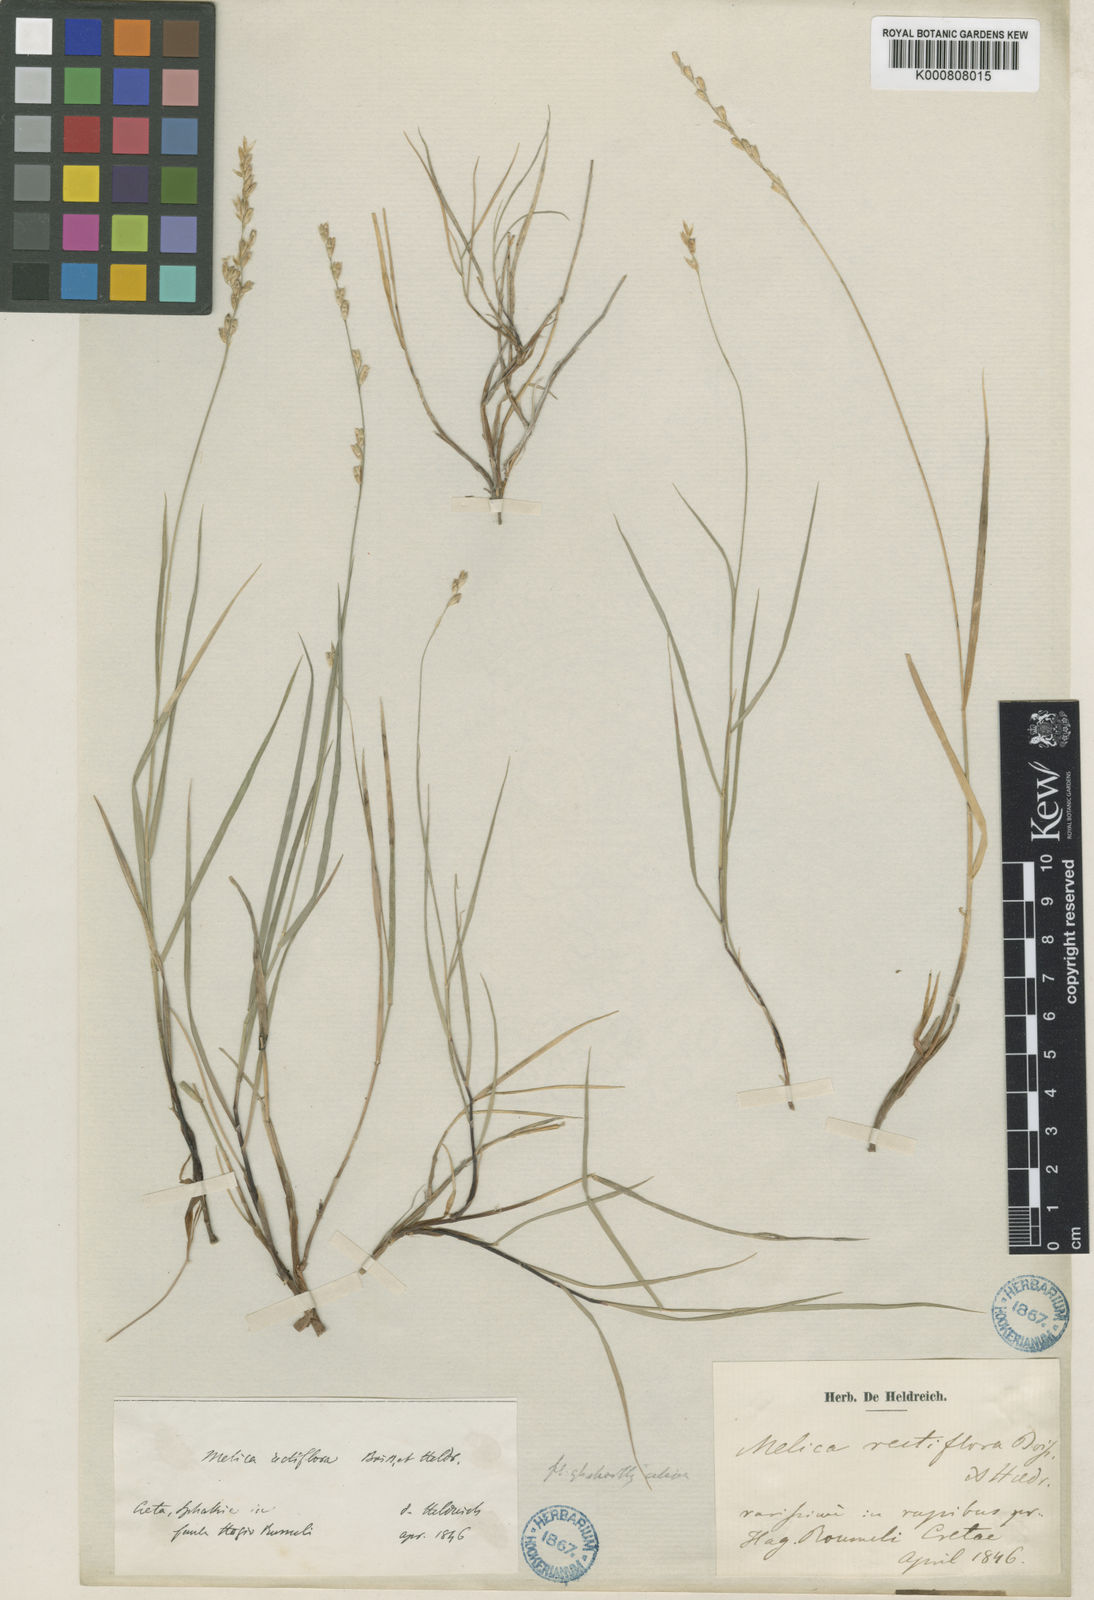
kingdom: Plantae
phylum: Tracheophyta
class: Liliopsida
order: Poales
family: Poaceae
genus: Melica
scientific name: Melica rectiflora
